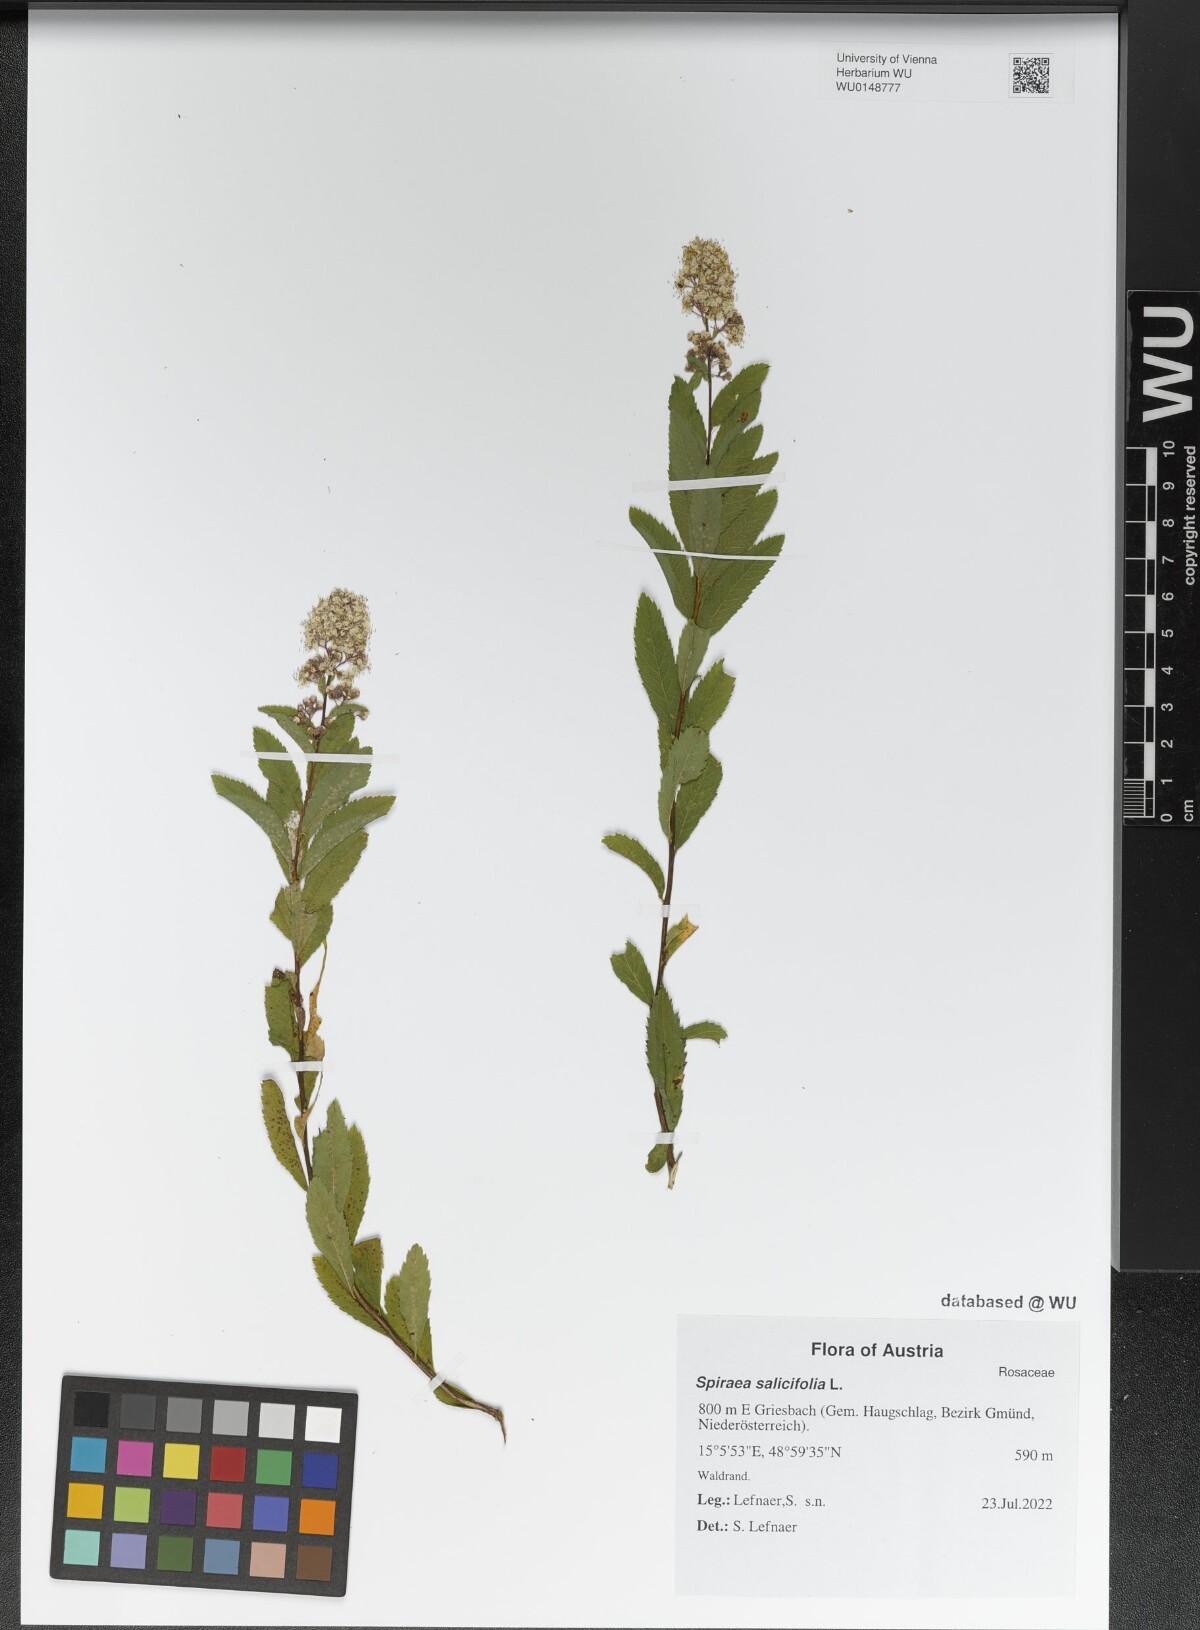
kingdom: Plantae
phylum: Tracheophyta
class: Magnoliopsida
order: Rosales
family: Rosaceae
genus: Spiraea
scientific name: Spiraea salicifolia
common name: Bridewort
